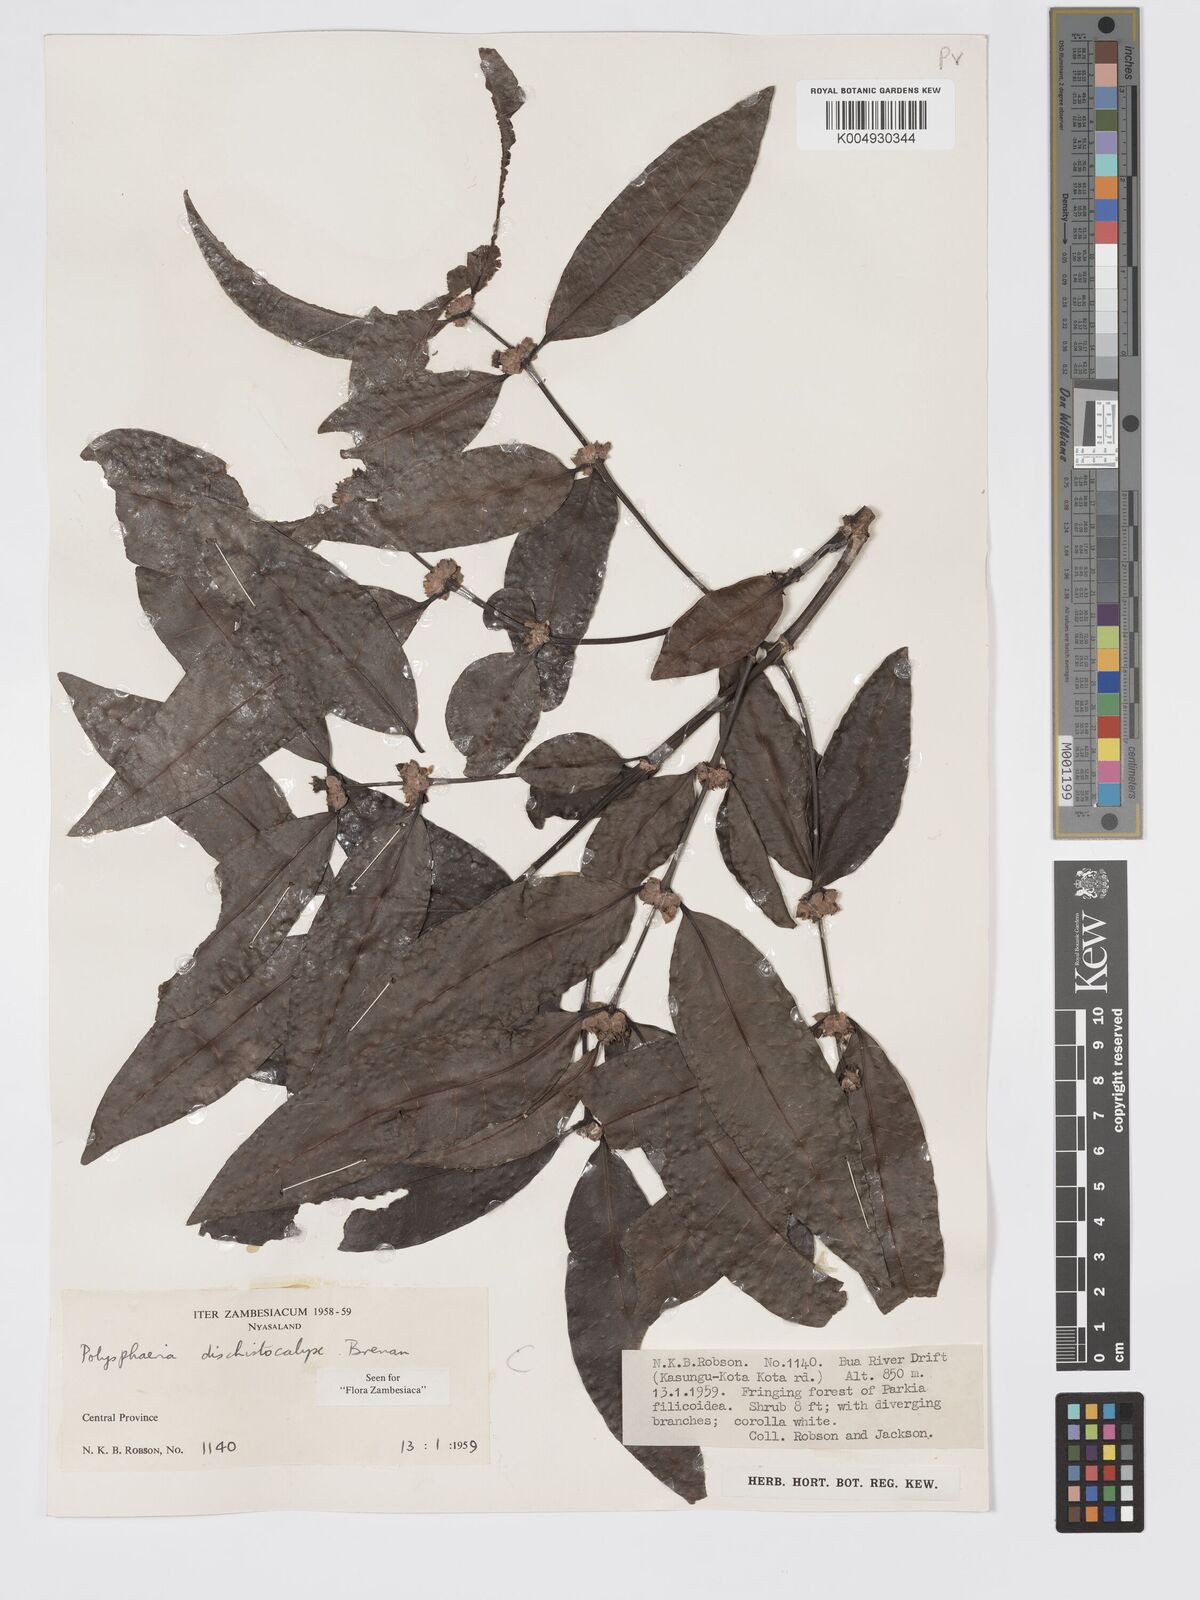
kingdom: Plantae
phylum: Tracheophyta
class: Magnoliopsida
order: Gentianales
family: Rubiaceae
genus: Polysphaeria
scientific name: Polysphaeria dischistocalyx
